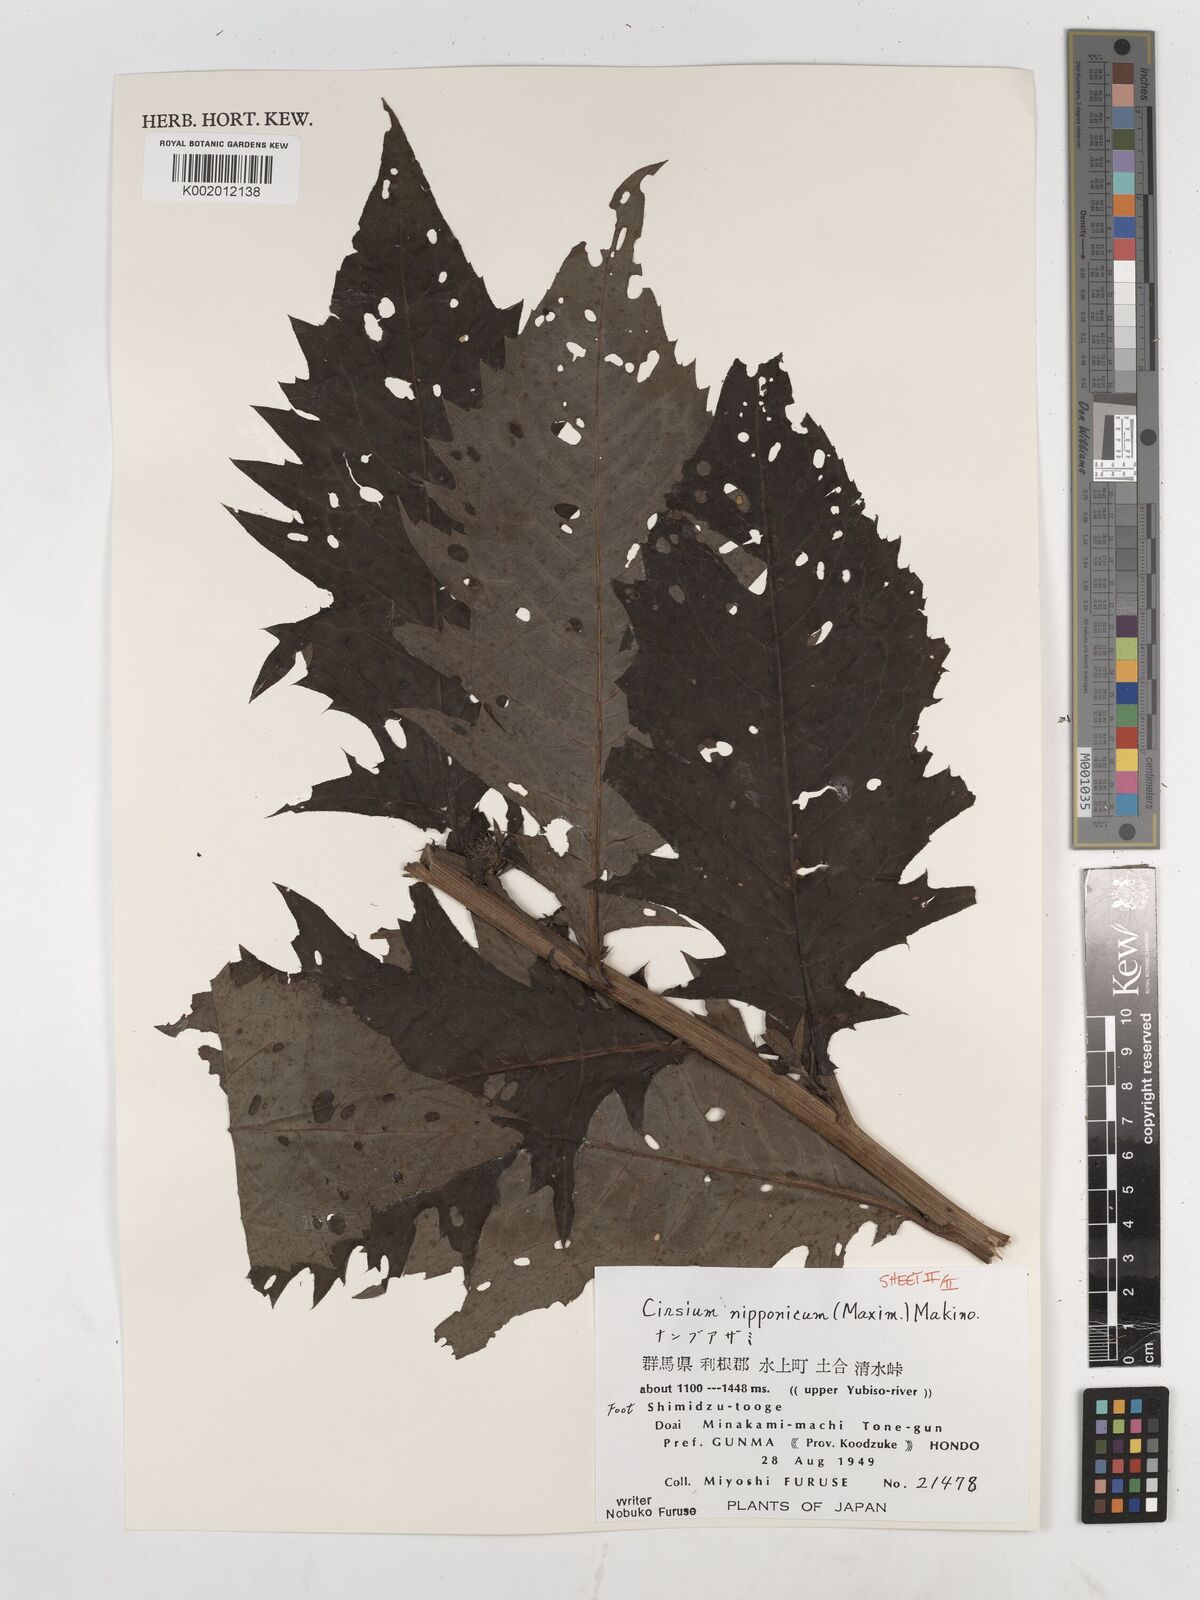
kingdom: Plantae
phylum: Tracheophyta
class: Magnoliopsida
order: Asterales
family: Asteraceae
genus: Cirsium
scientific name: Cirsium nipponicum
